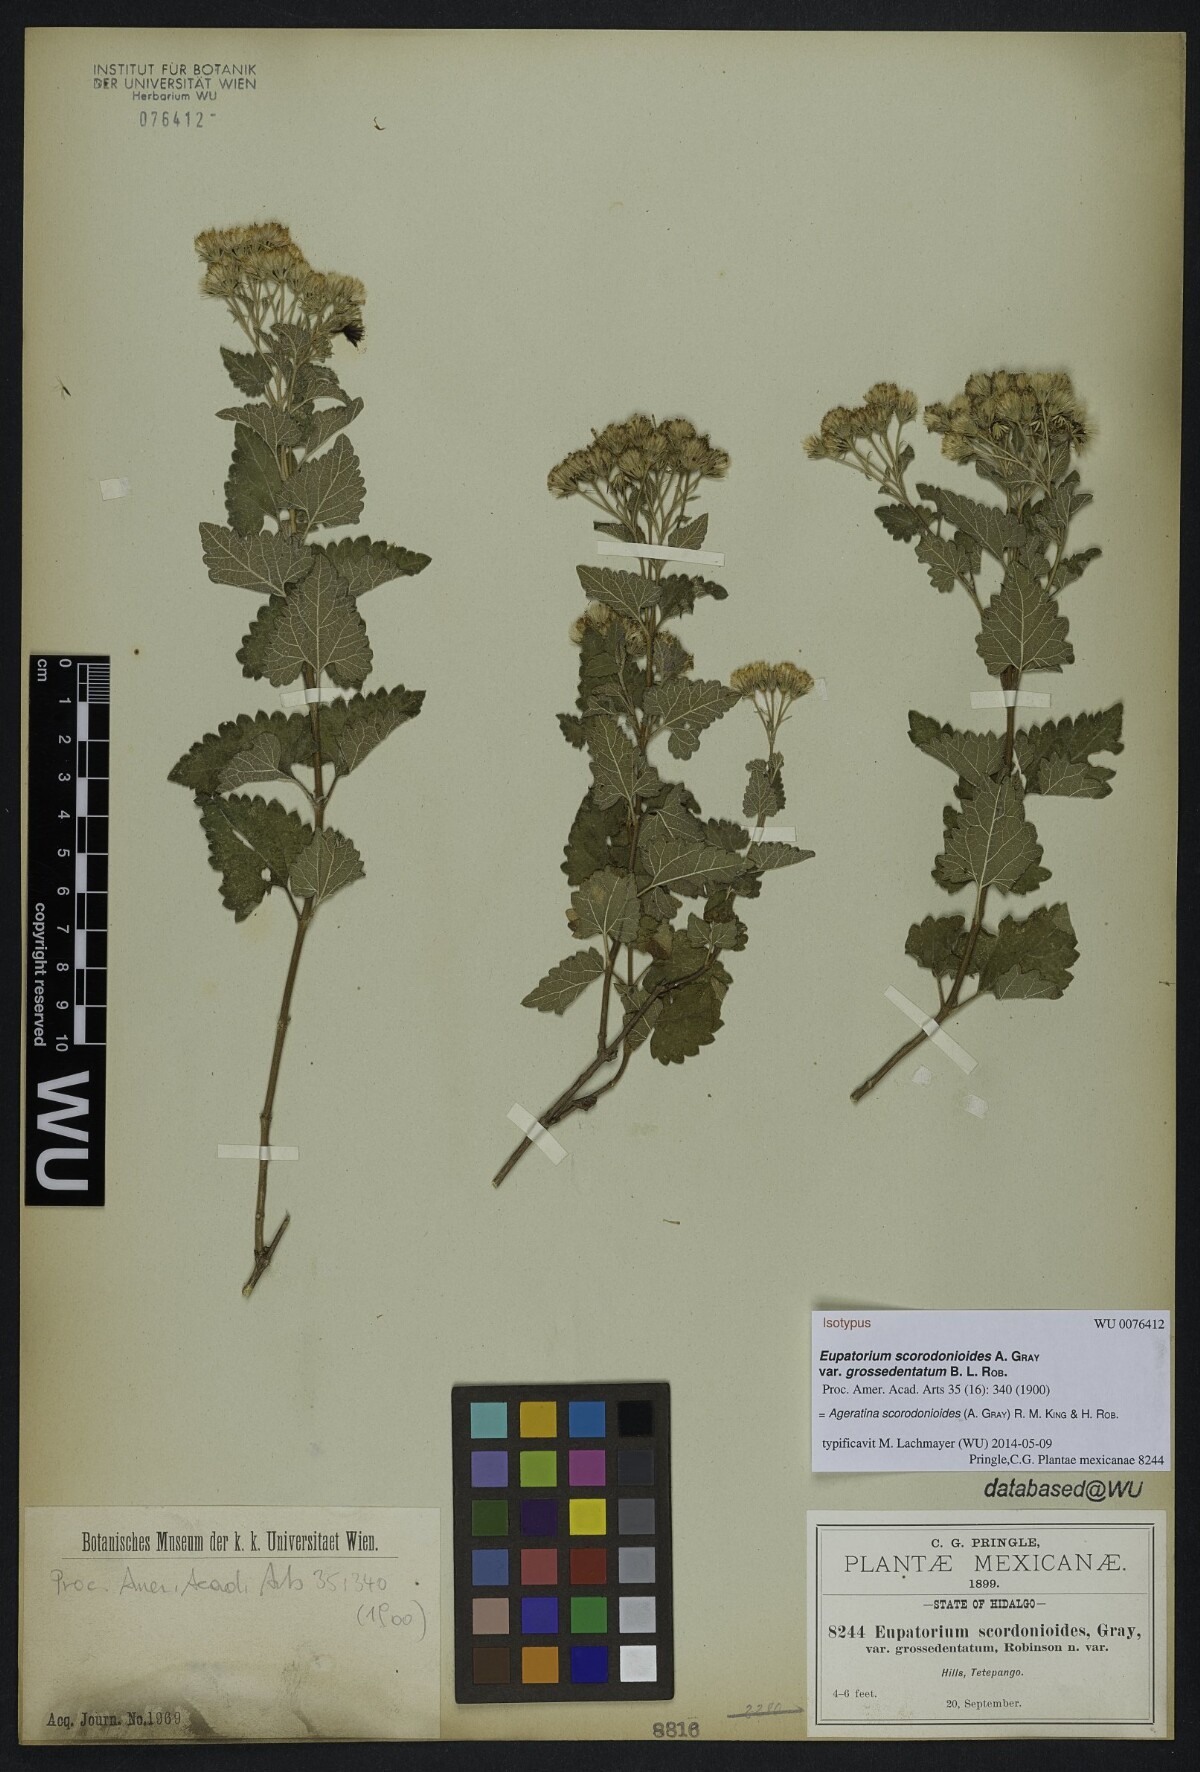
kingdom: Plantae
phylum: Tracheophyta
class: Magnoliopsida
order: Asterales
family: Asteraceae
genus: Ageratina
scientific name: Ageratina scorodonioides
